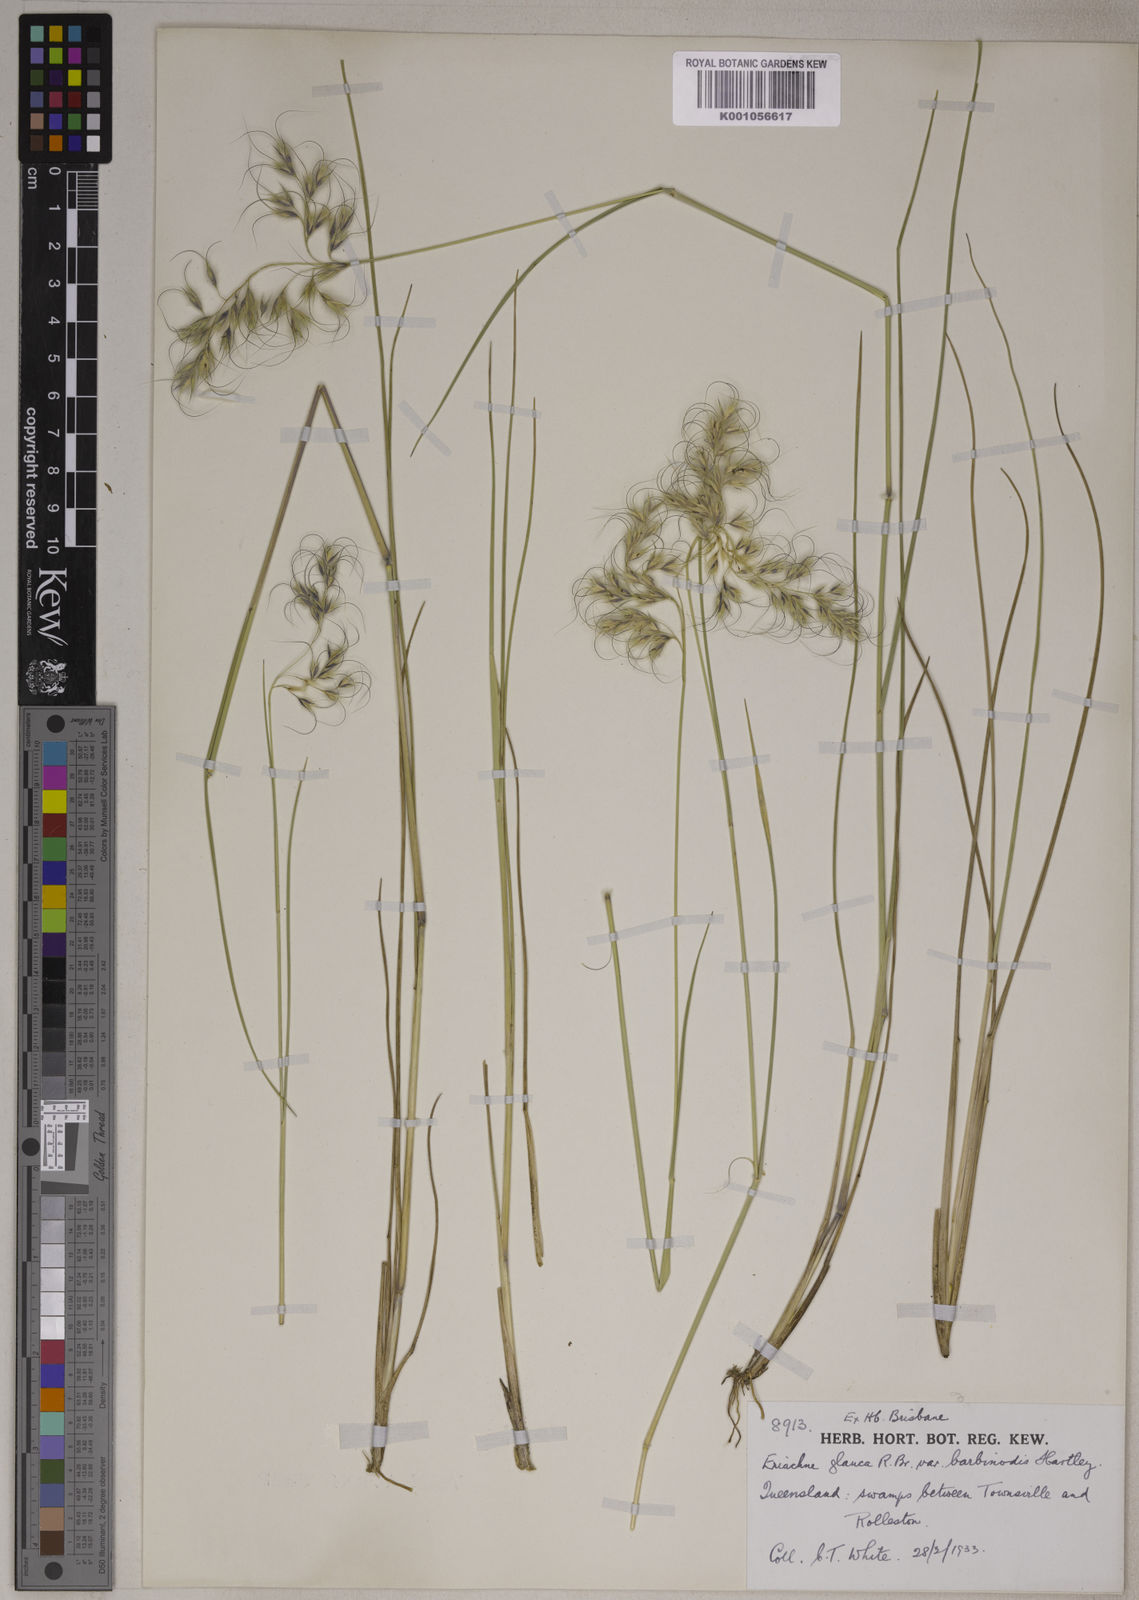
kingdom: Plantae
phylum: Tracheophyta
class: Liliopsida
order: Poales
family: Poaceae
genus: Eriachne
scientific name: Eriachne glauca
